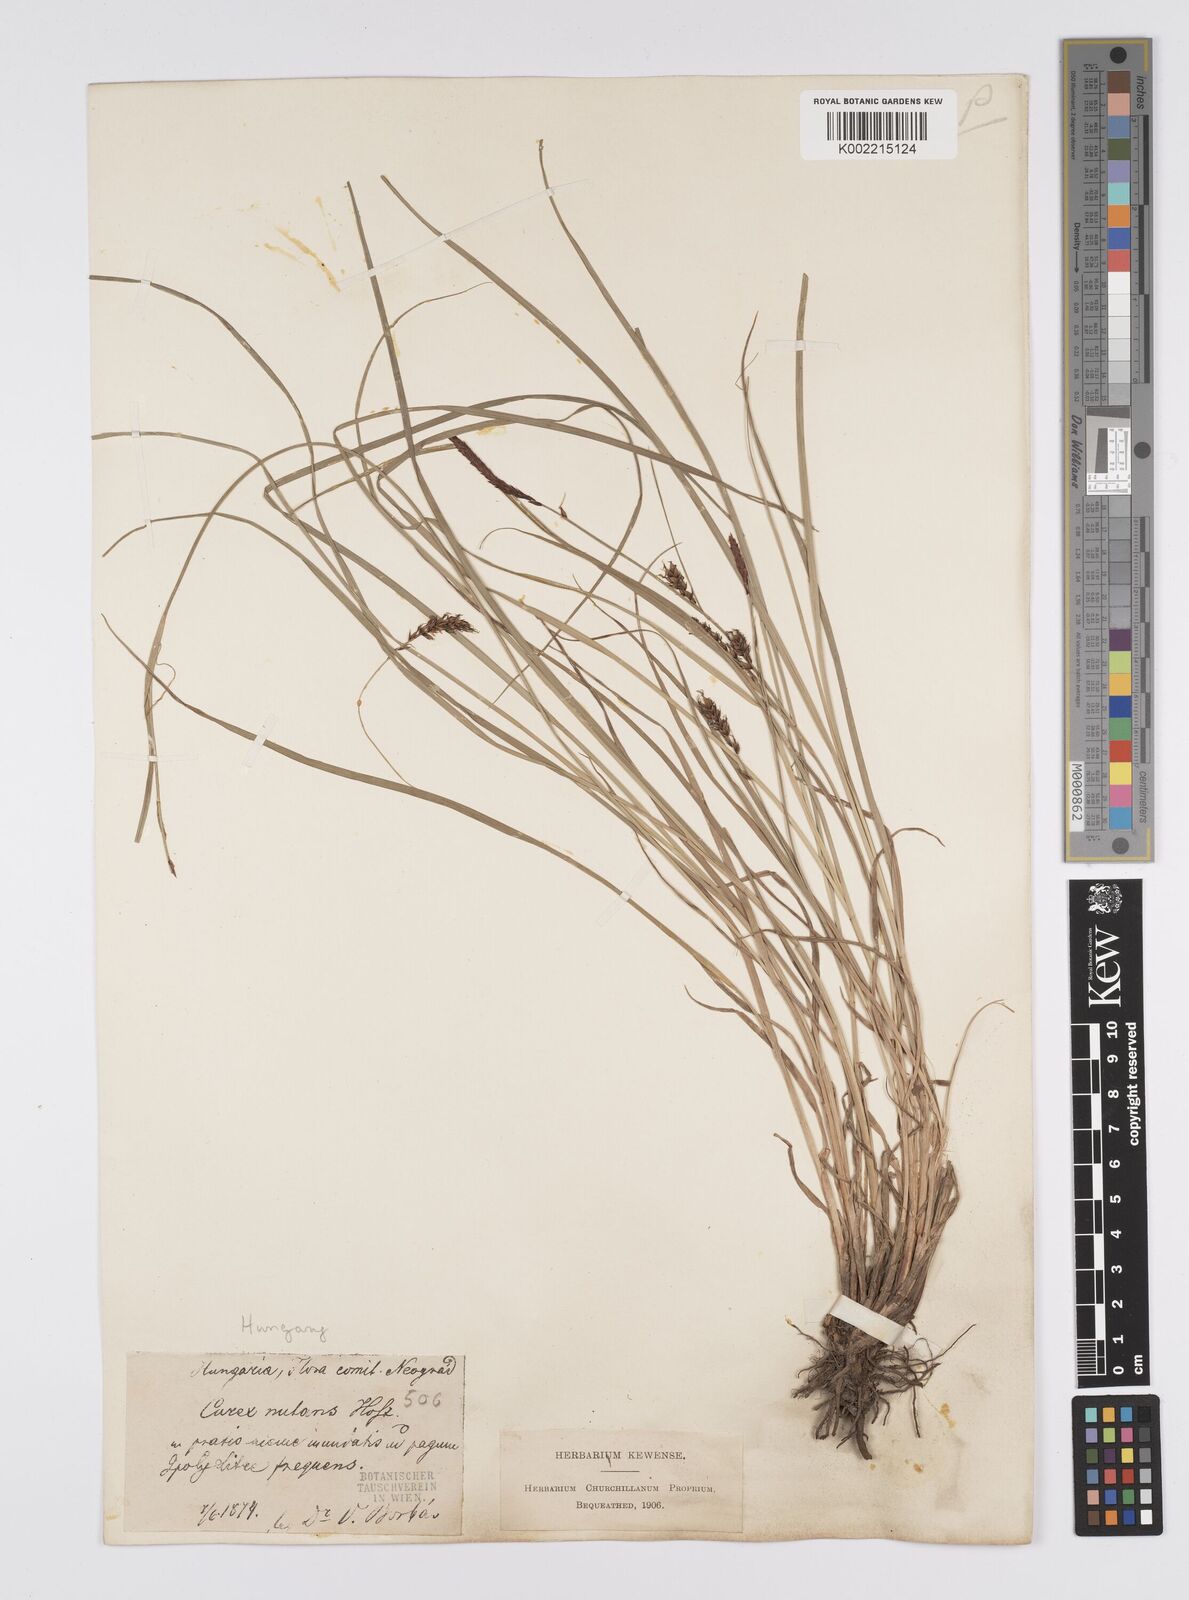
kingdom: Plantae
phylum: Tracheophyta
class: Liliopsida
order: Poales
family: Cyperaceae
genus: Carex
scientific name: Carex melanostachya
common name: Black-spiked sedge
